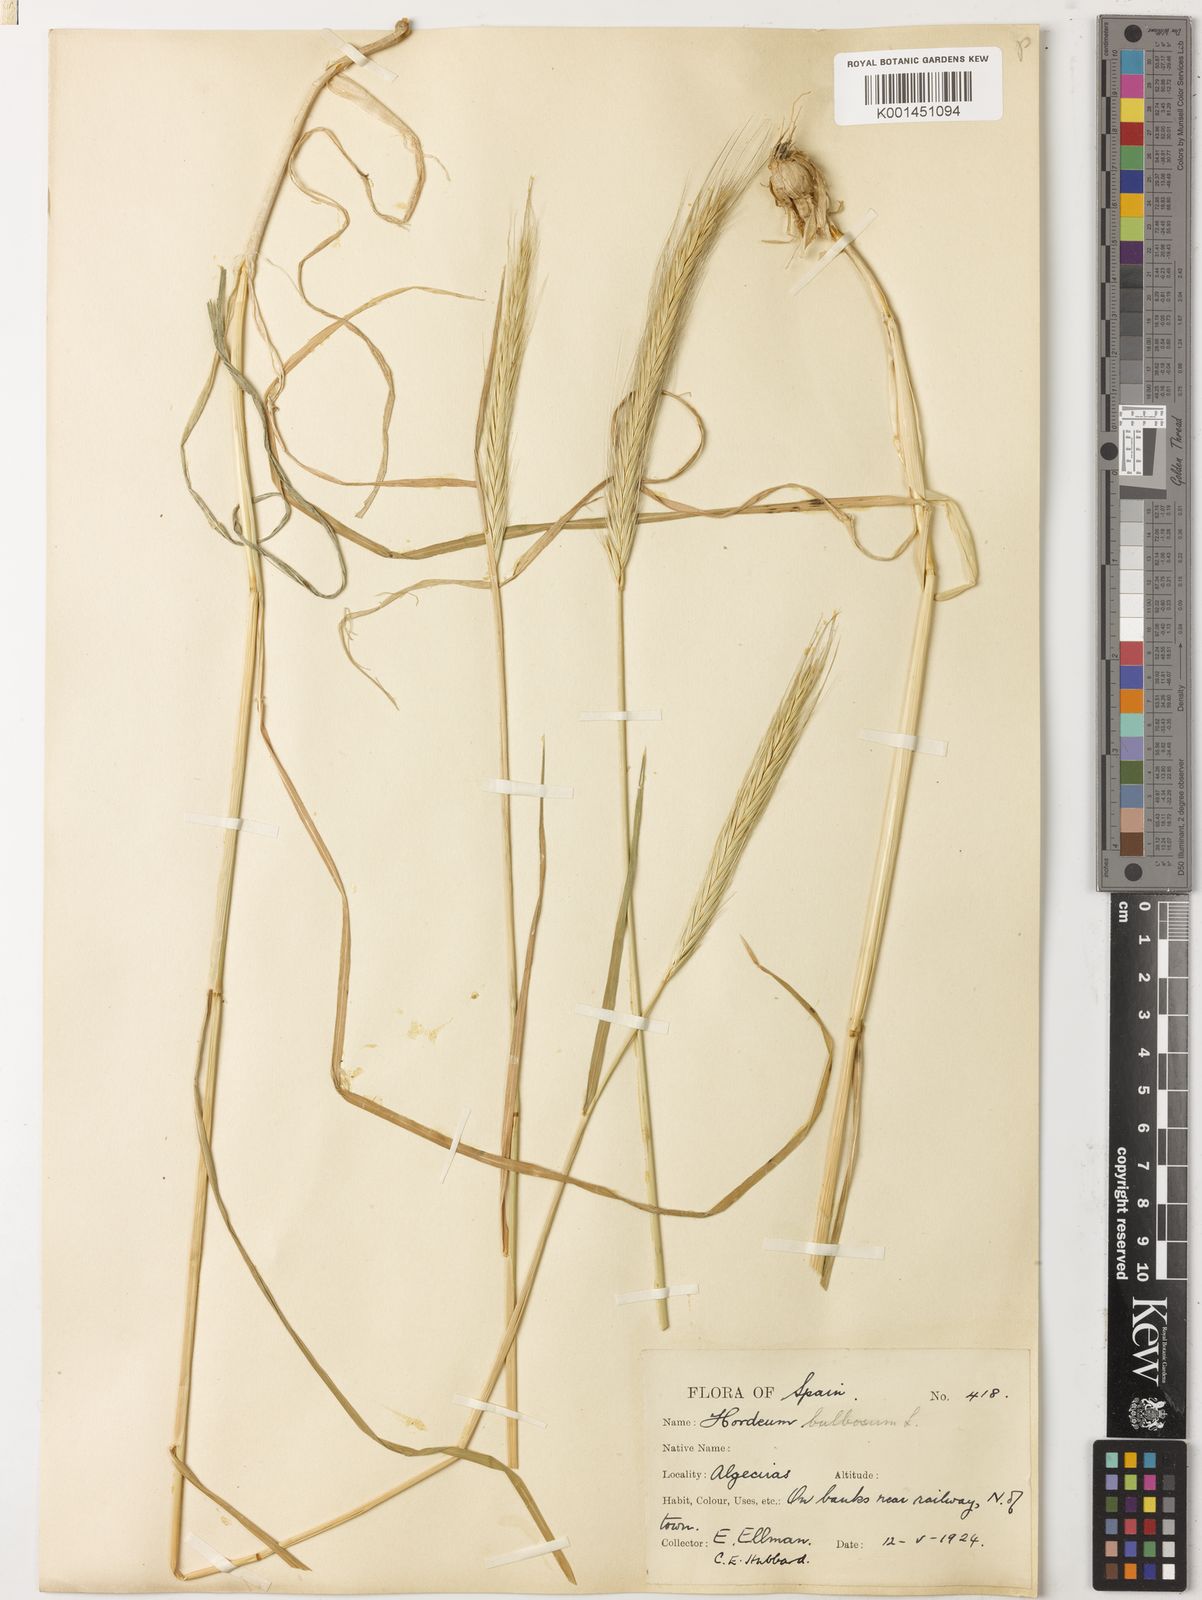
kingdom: Plantae
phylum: Tracheophyta
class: Liliopsida
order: Poales
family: Poaceae
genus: Hordeum
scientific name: Hordeum bulbosum
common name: Bulbous barley
